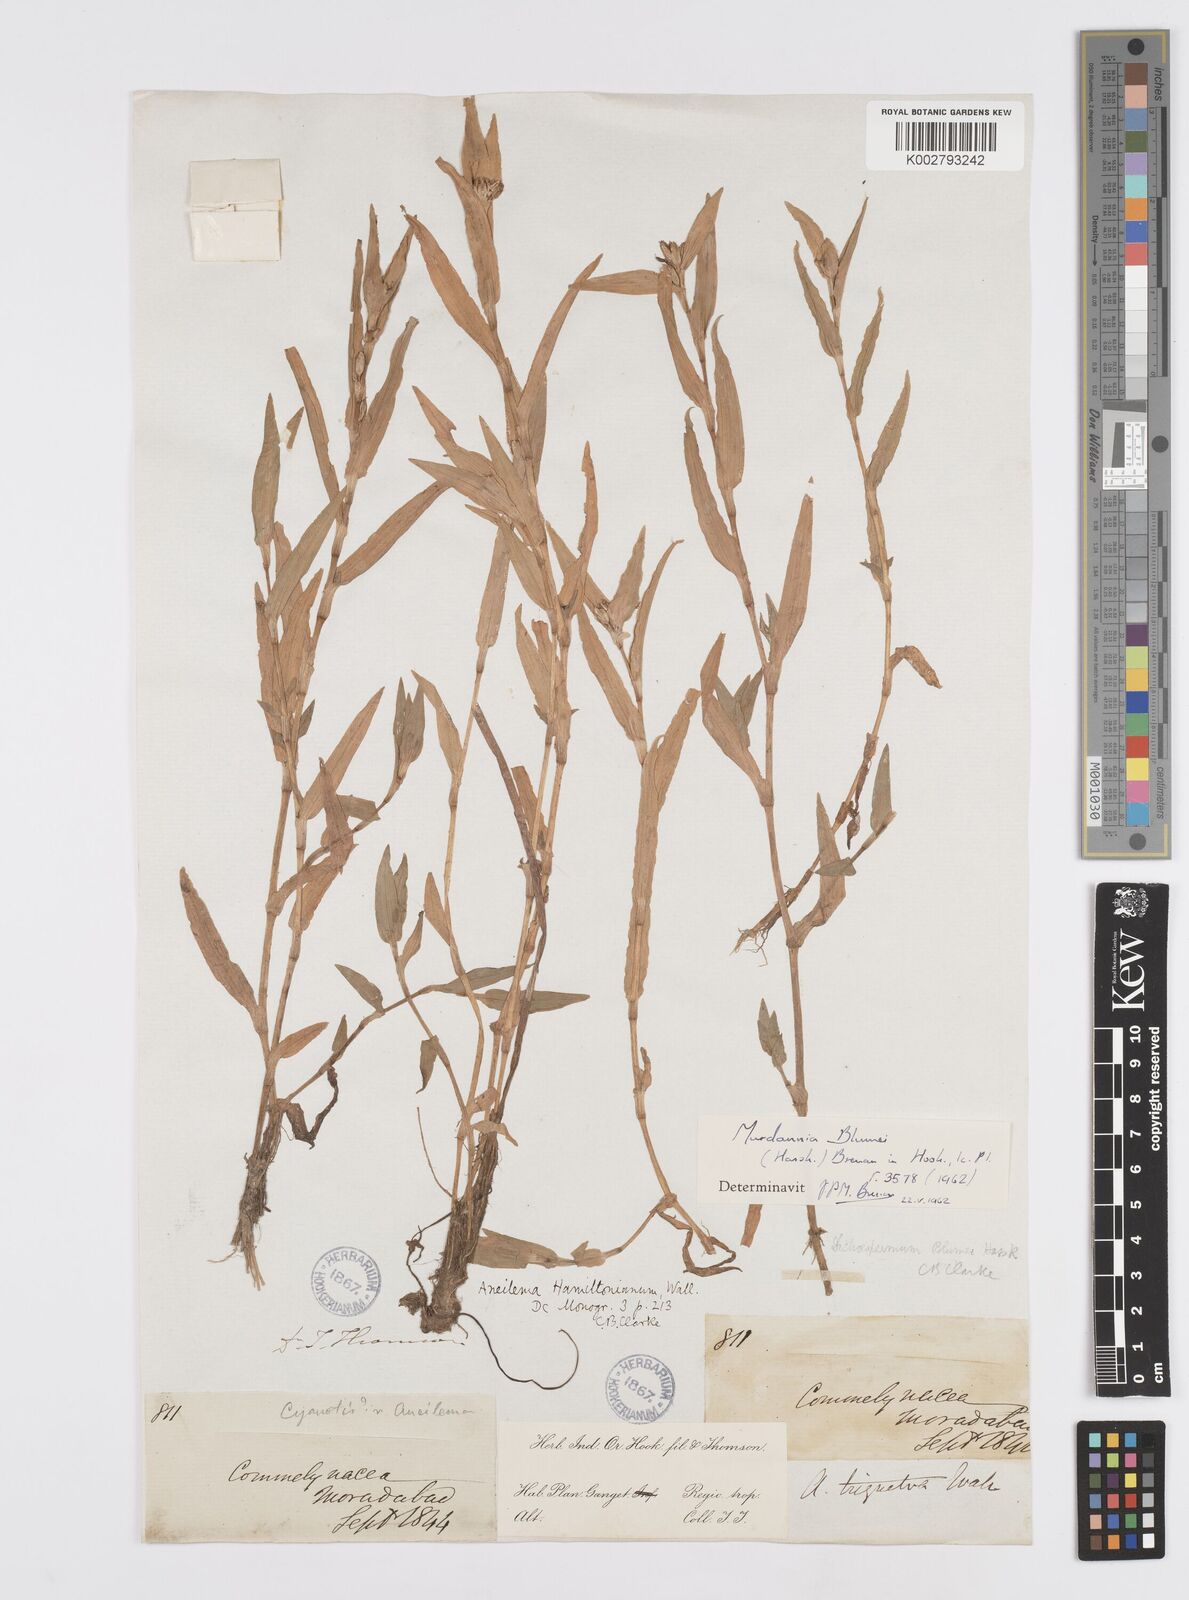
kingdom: Plantae
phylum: Tracheophyta
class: Liliopsida
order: Commelinales
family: Commelinaceae
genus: Murdannia
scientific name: Murdannia blumei
